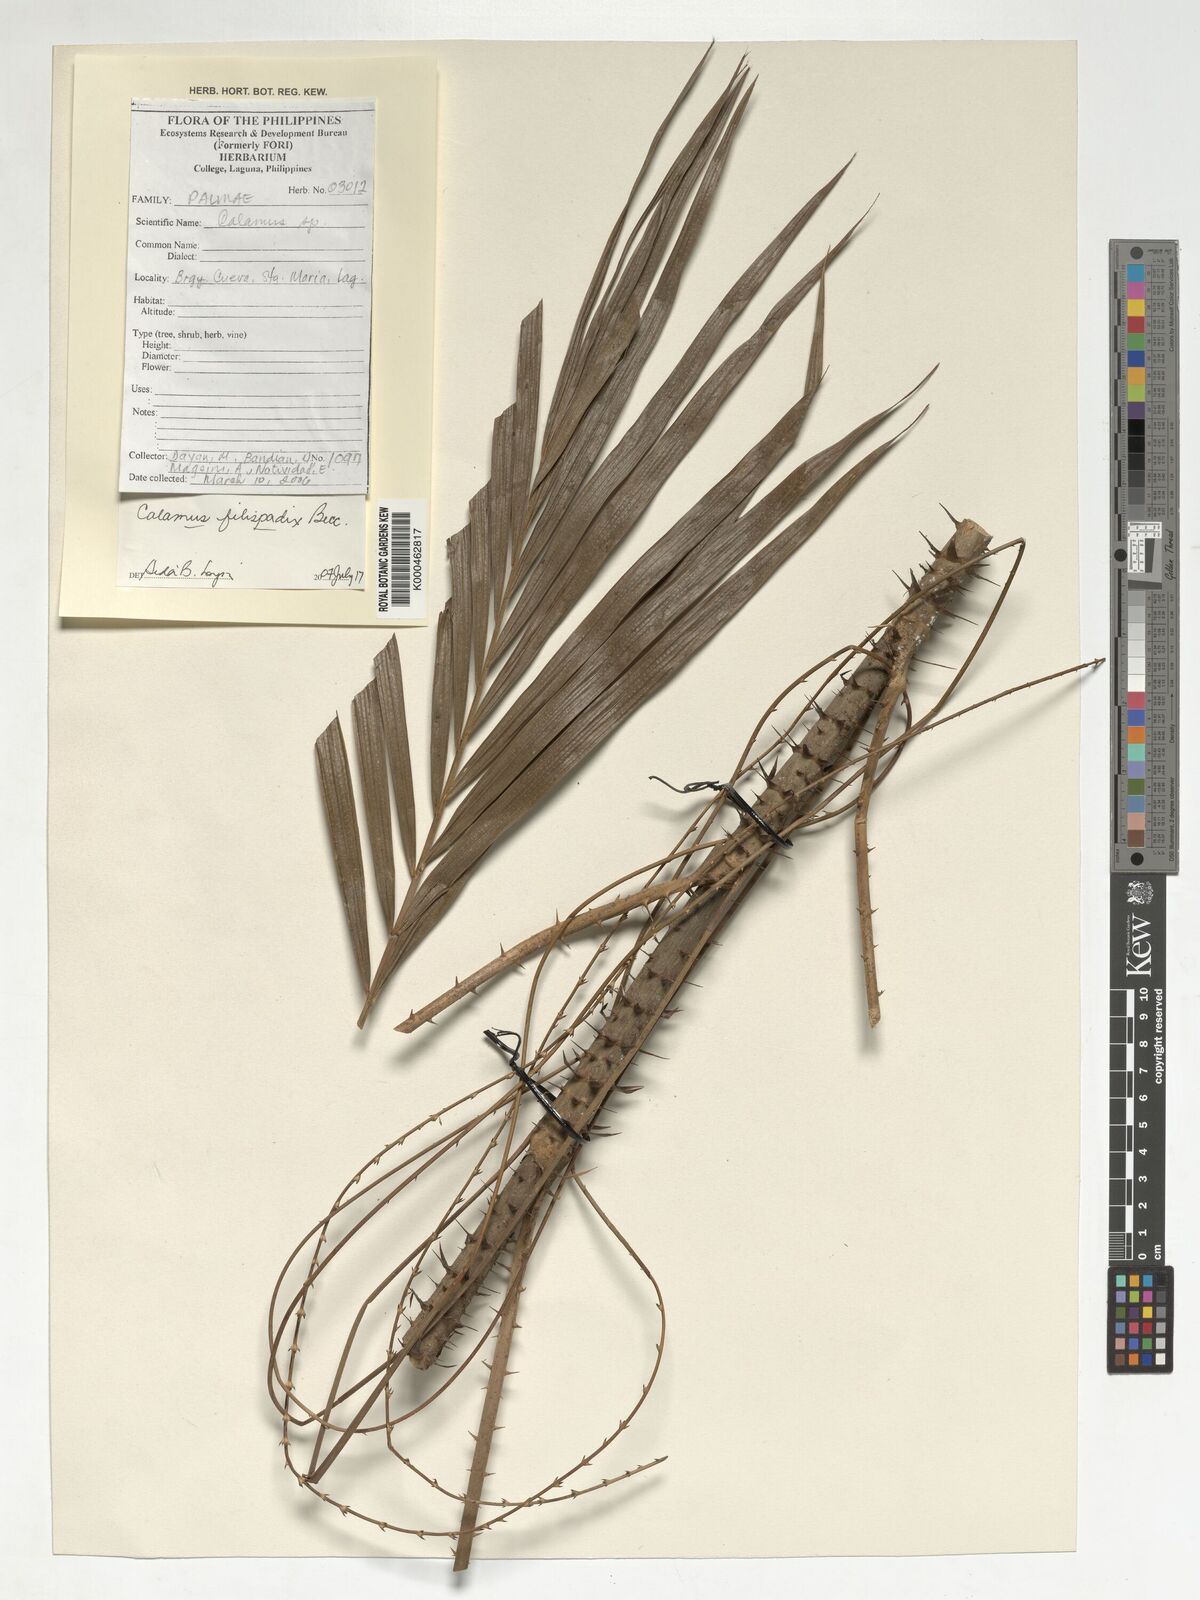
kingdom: Plantae
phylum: Tracheophyta
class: Liliopsida
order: Arecales
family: Arecaceae
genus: Calamus
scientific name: Calamus filispadix
